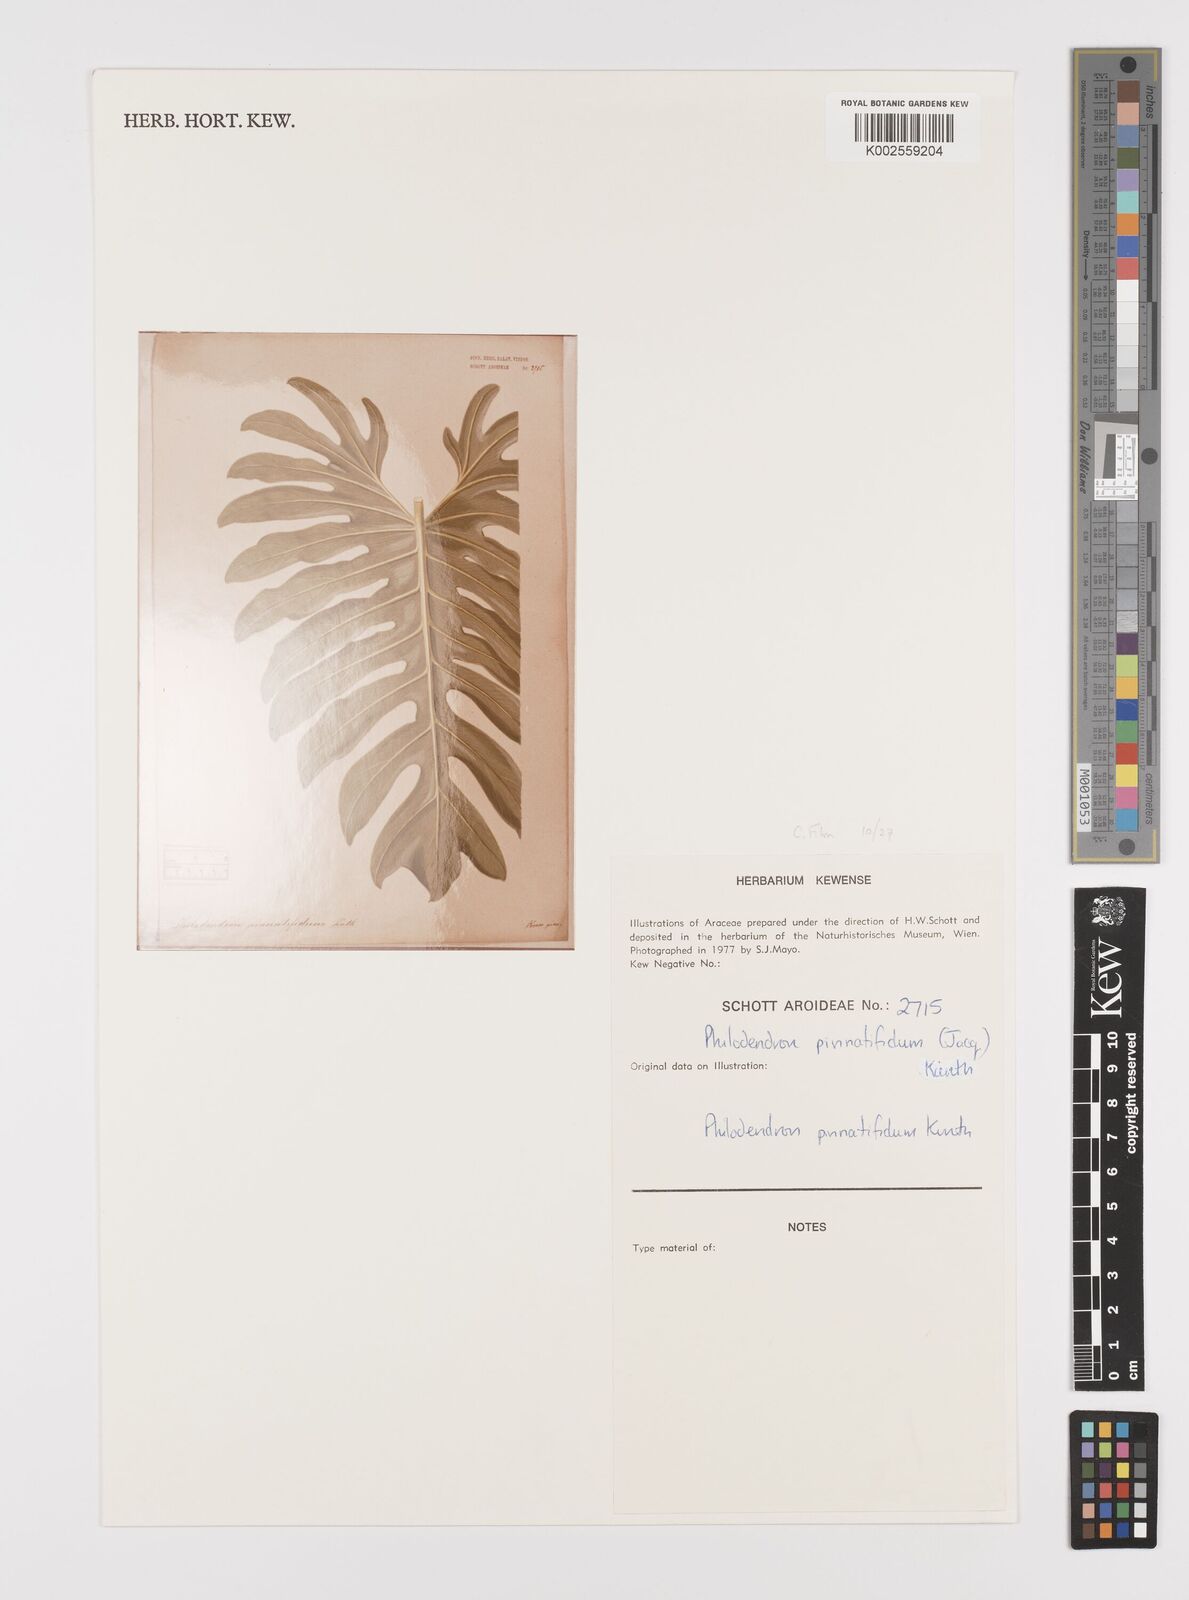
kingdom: Plantae
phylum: Tracheophyta
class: Liliopsida
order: Alismatales
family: Araceae
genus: Philodendron
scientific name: Philodendron pinnatifidum
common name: Comb-leaf philodendron
